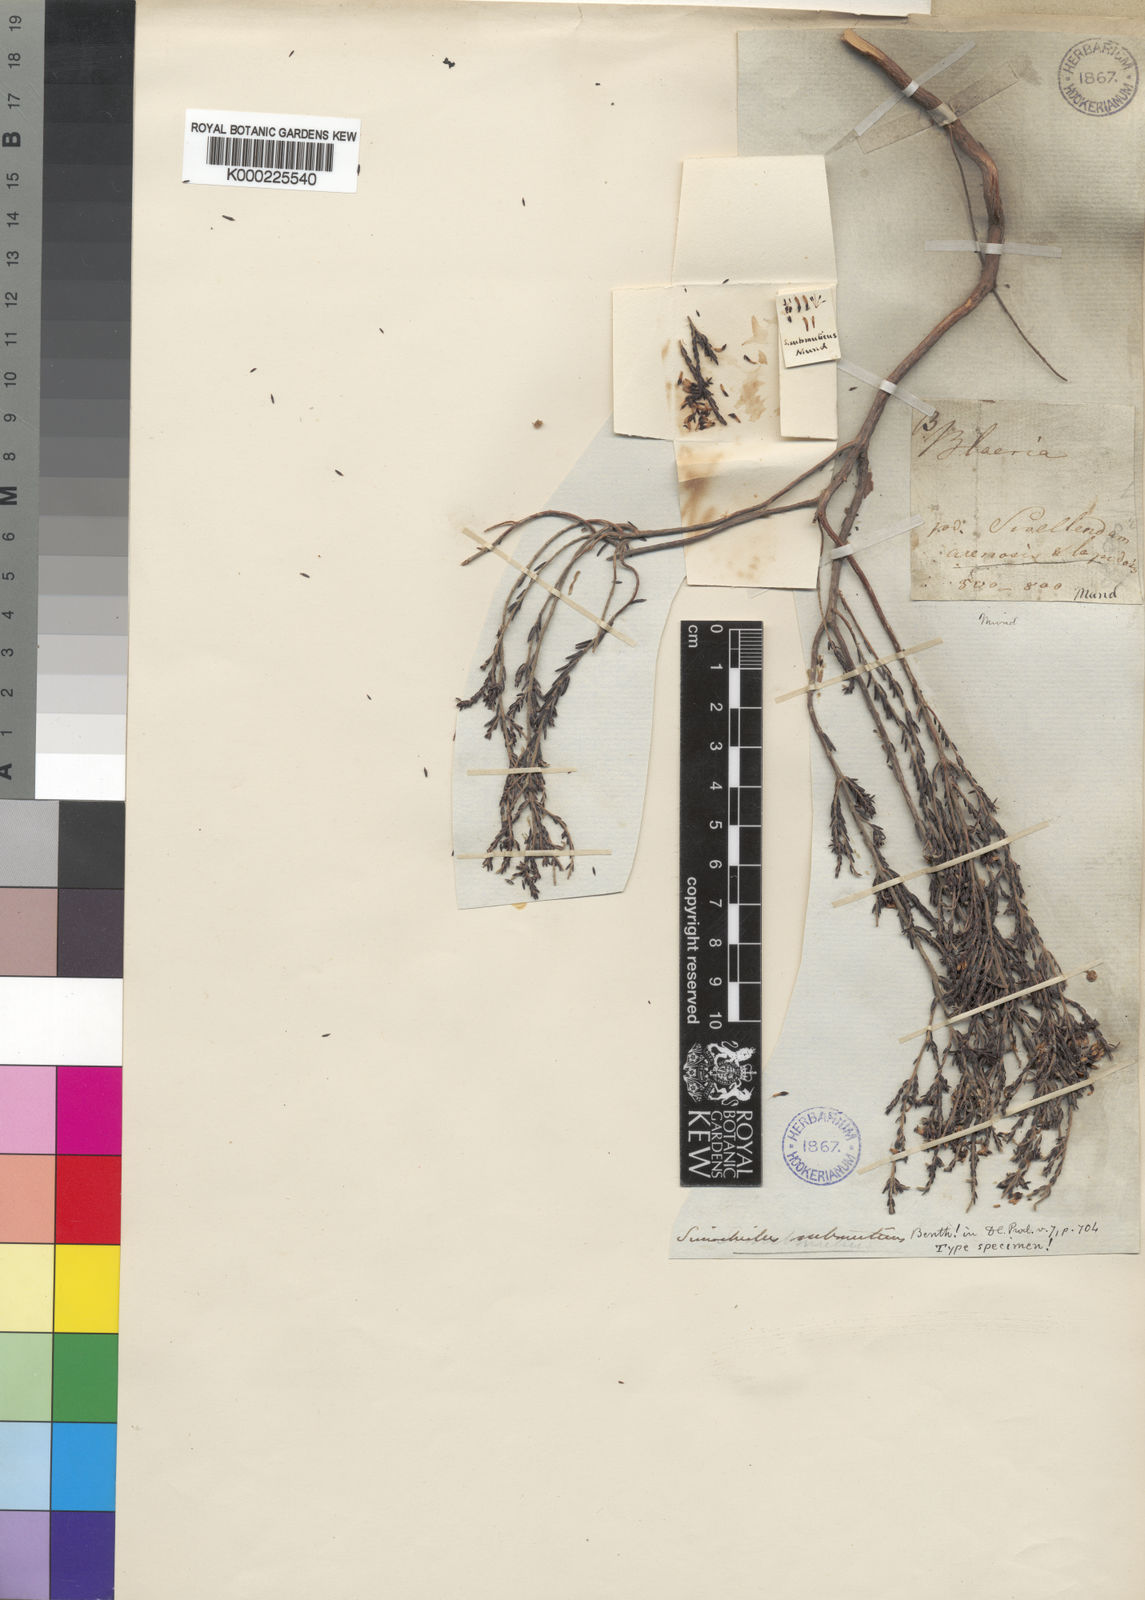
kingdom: Plantae
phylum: Tracheophyta
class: Magnoliopsida
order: Ericales
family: Ericaceae
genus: Erica
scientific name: Erica glabella
